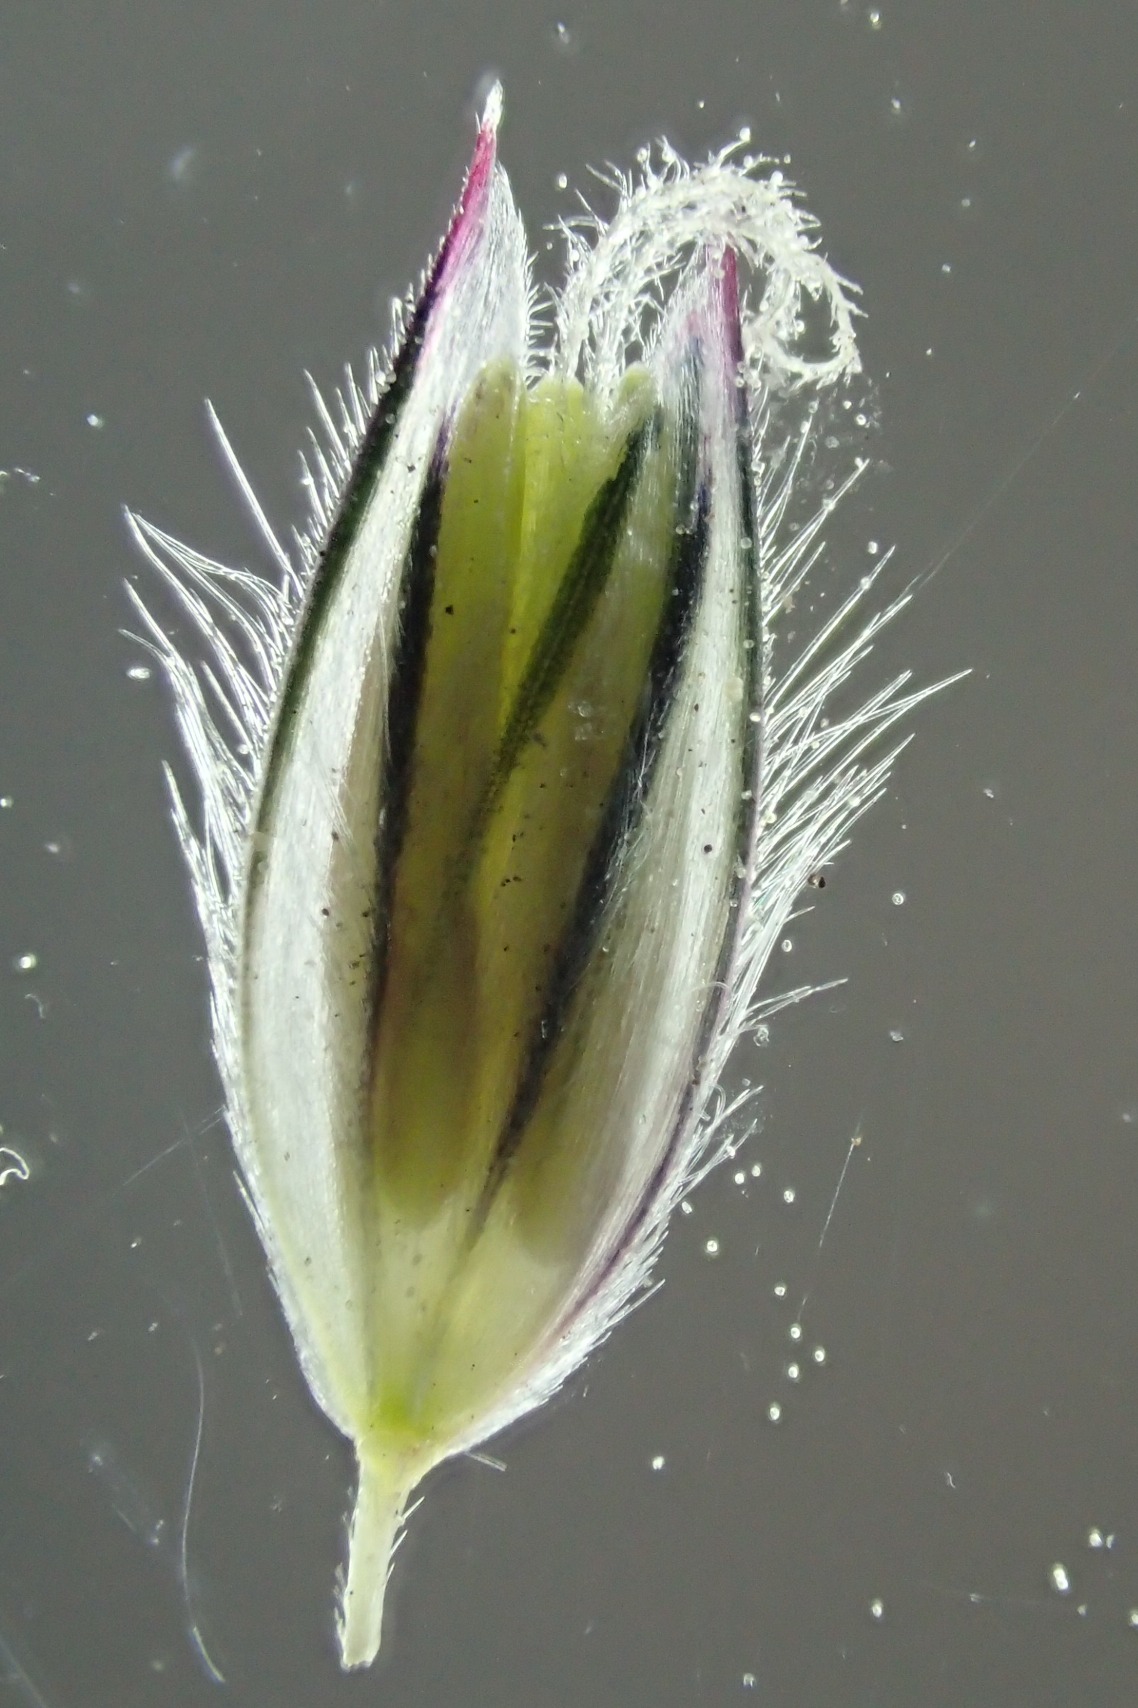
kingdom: Plantae
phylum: Tracheophyta
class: Liliopsida
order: Poales
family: Poaceae
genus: Alopecurus
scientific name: Alopecurus pratensis
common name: Eng-rævehale
